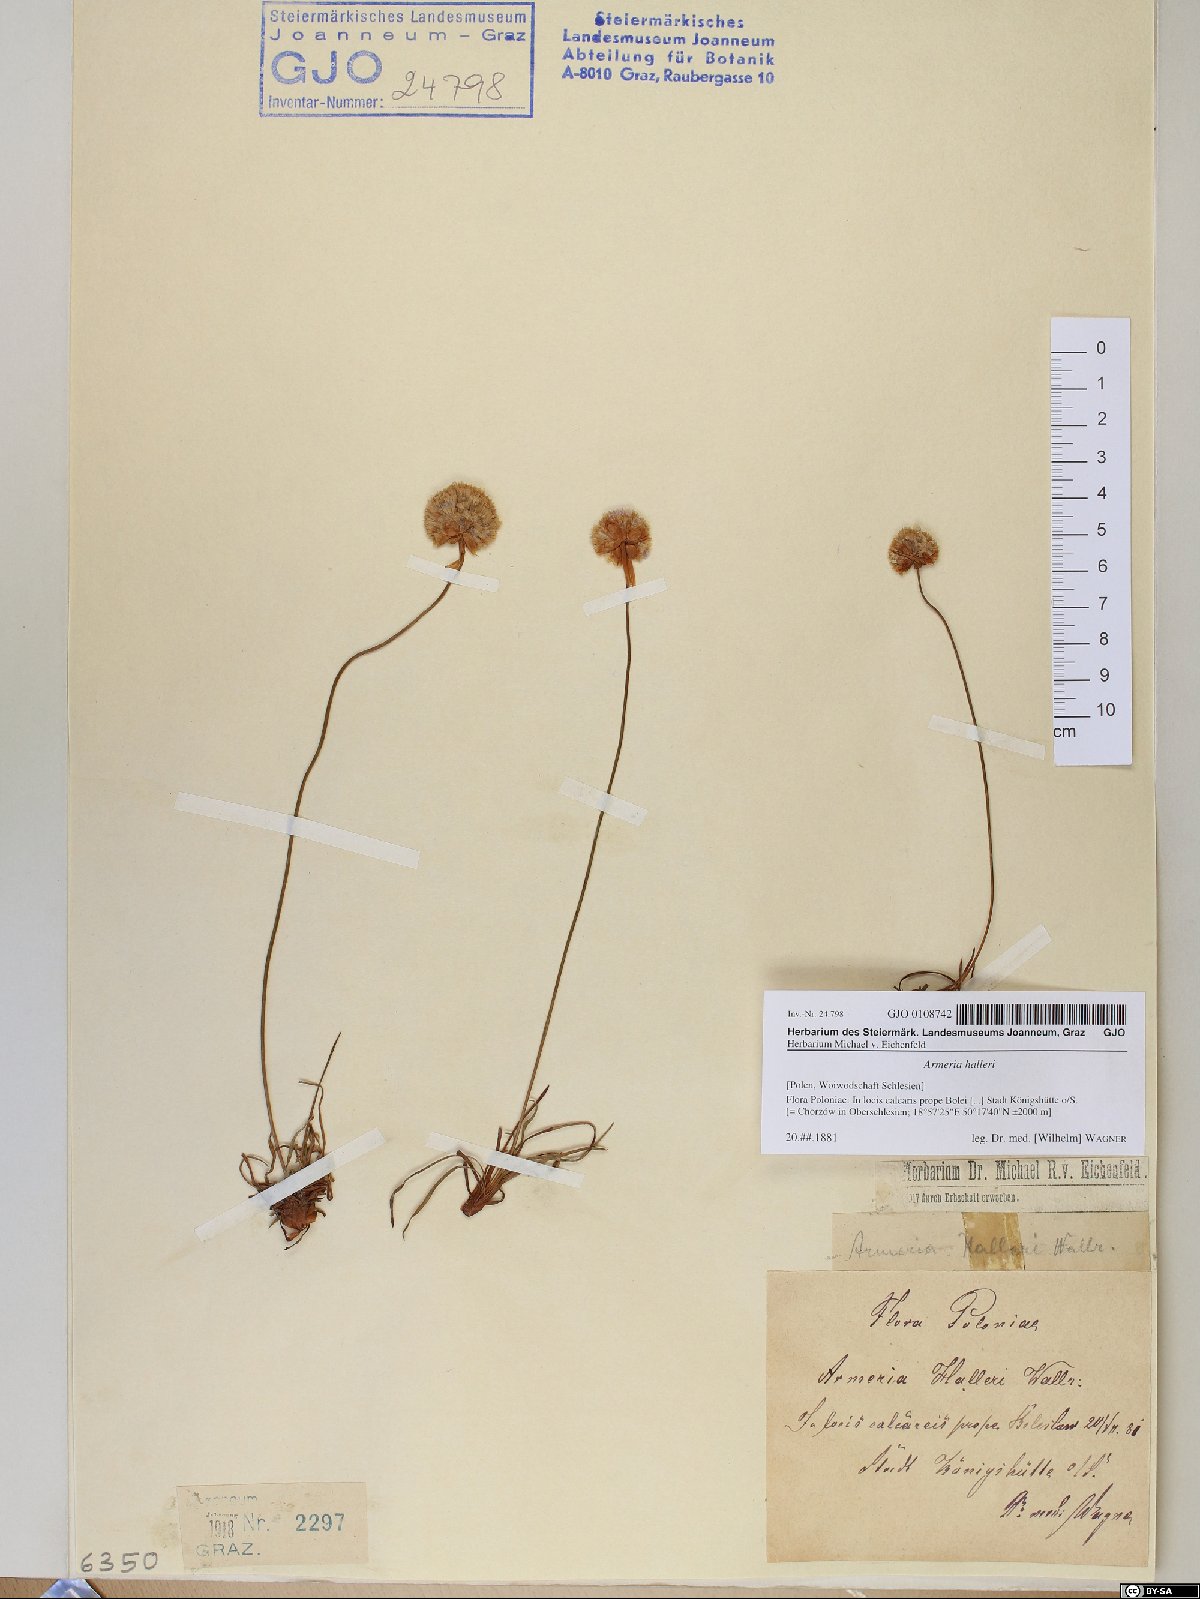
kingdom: Plantae
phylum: Tracheophyta
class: Magnoliopsida
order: Caryophyllales
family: Plumbaginaceae
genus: Armeria
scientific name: Armeria maritima
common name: Thrift
